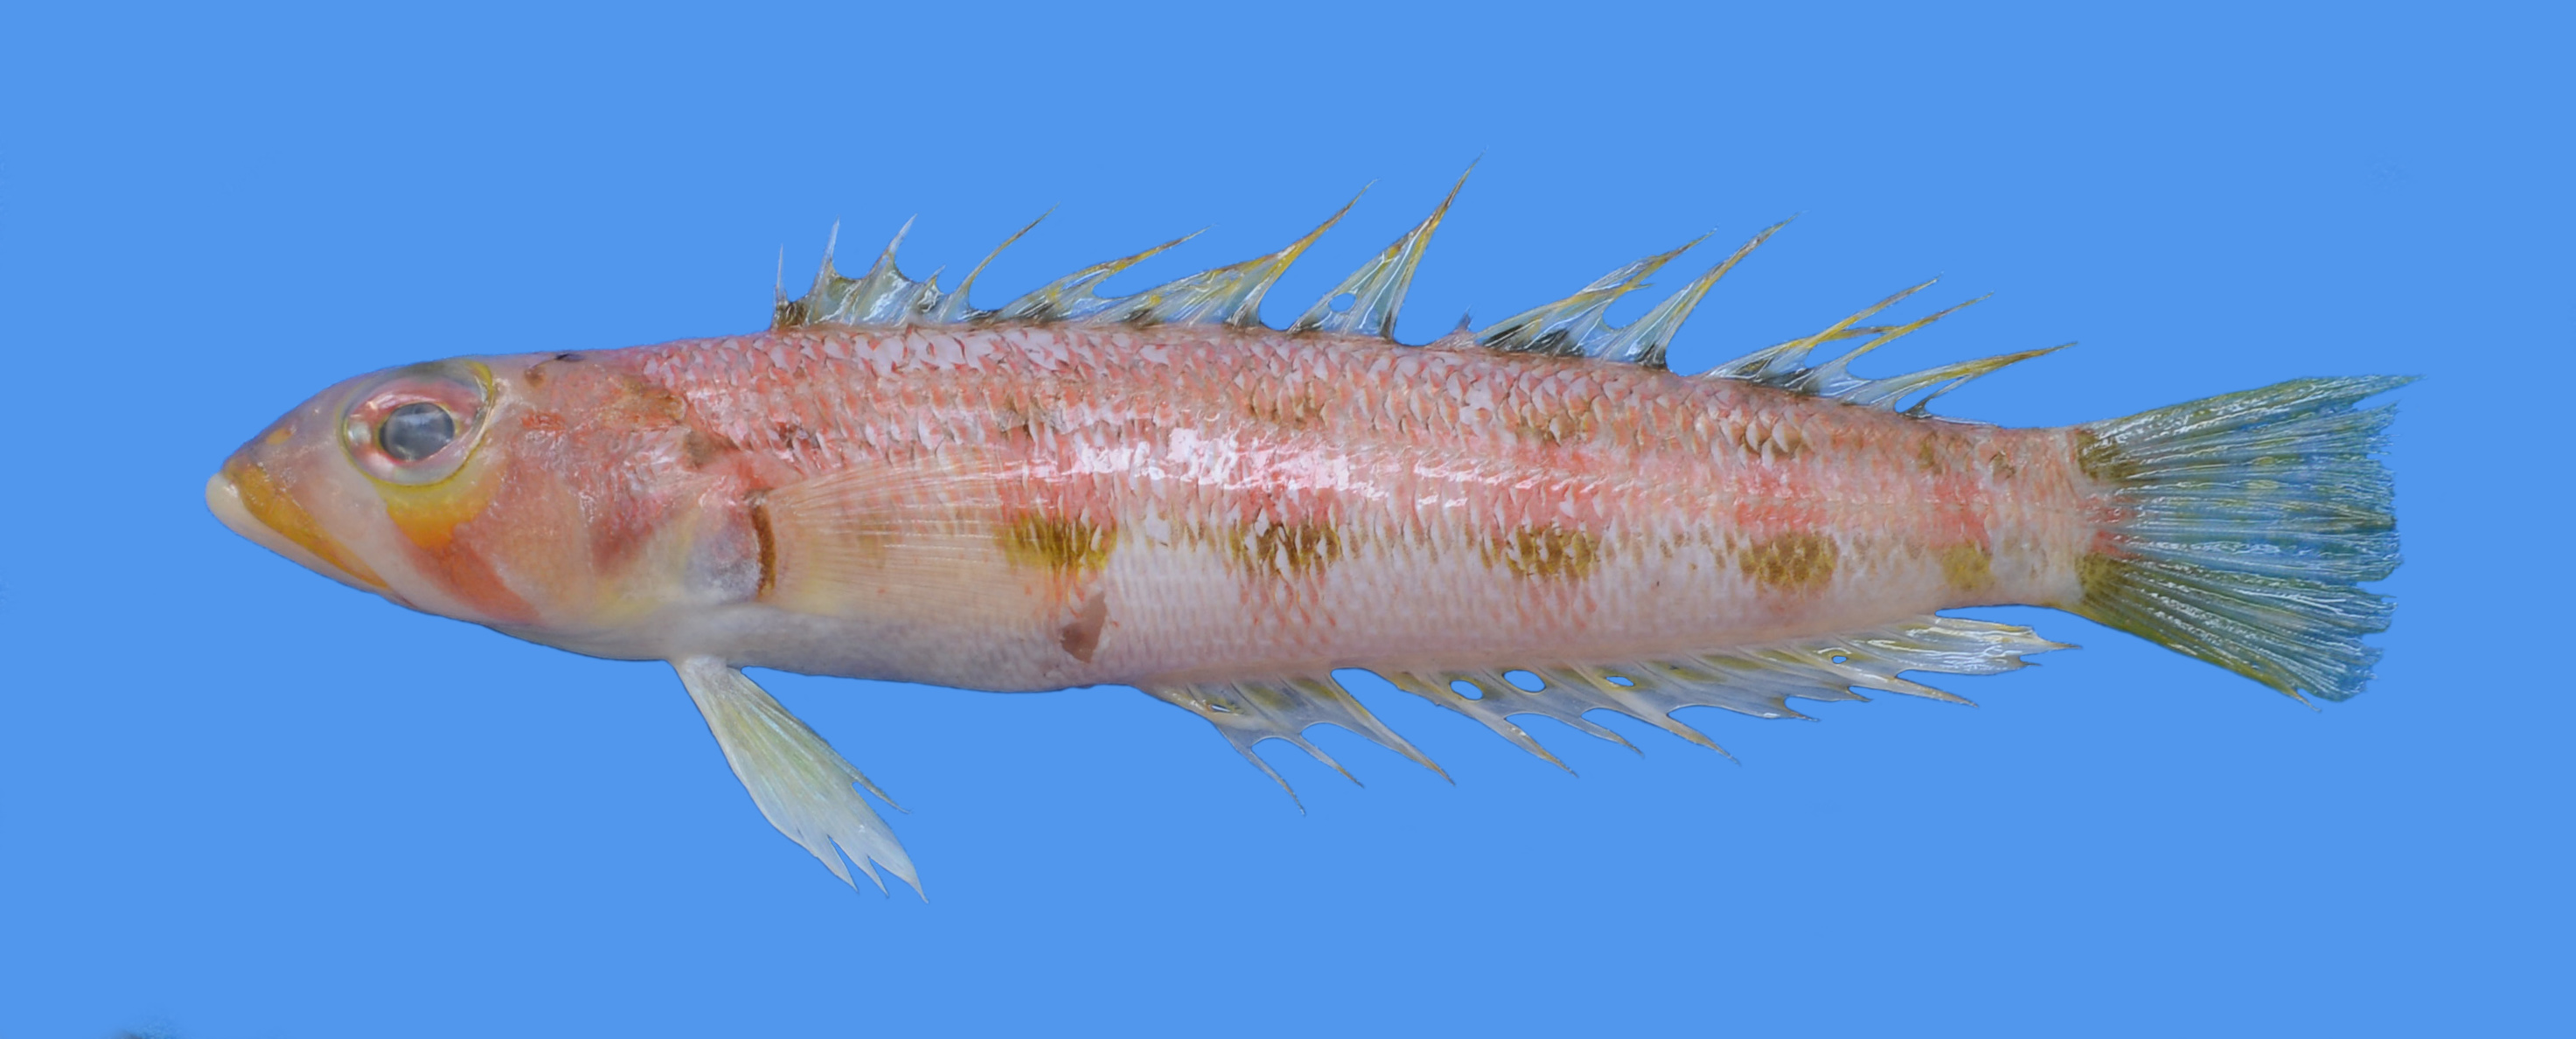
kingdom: Animalia
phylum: Chordata
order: Perciformes
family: Pinguipedidae
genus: Parapercis
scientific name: Parapercis
